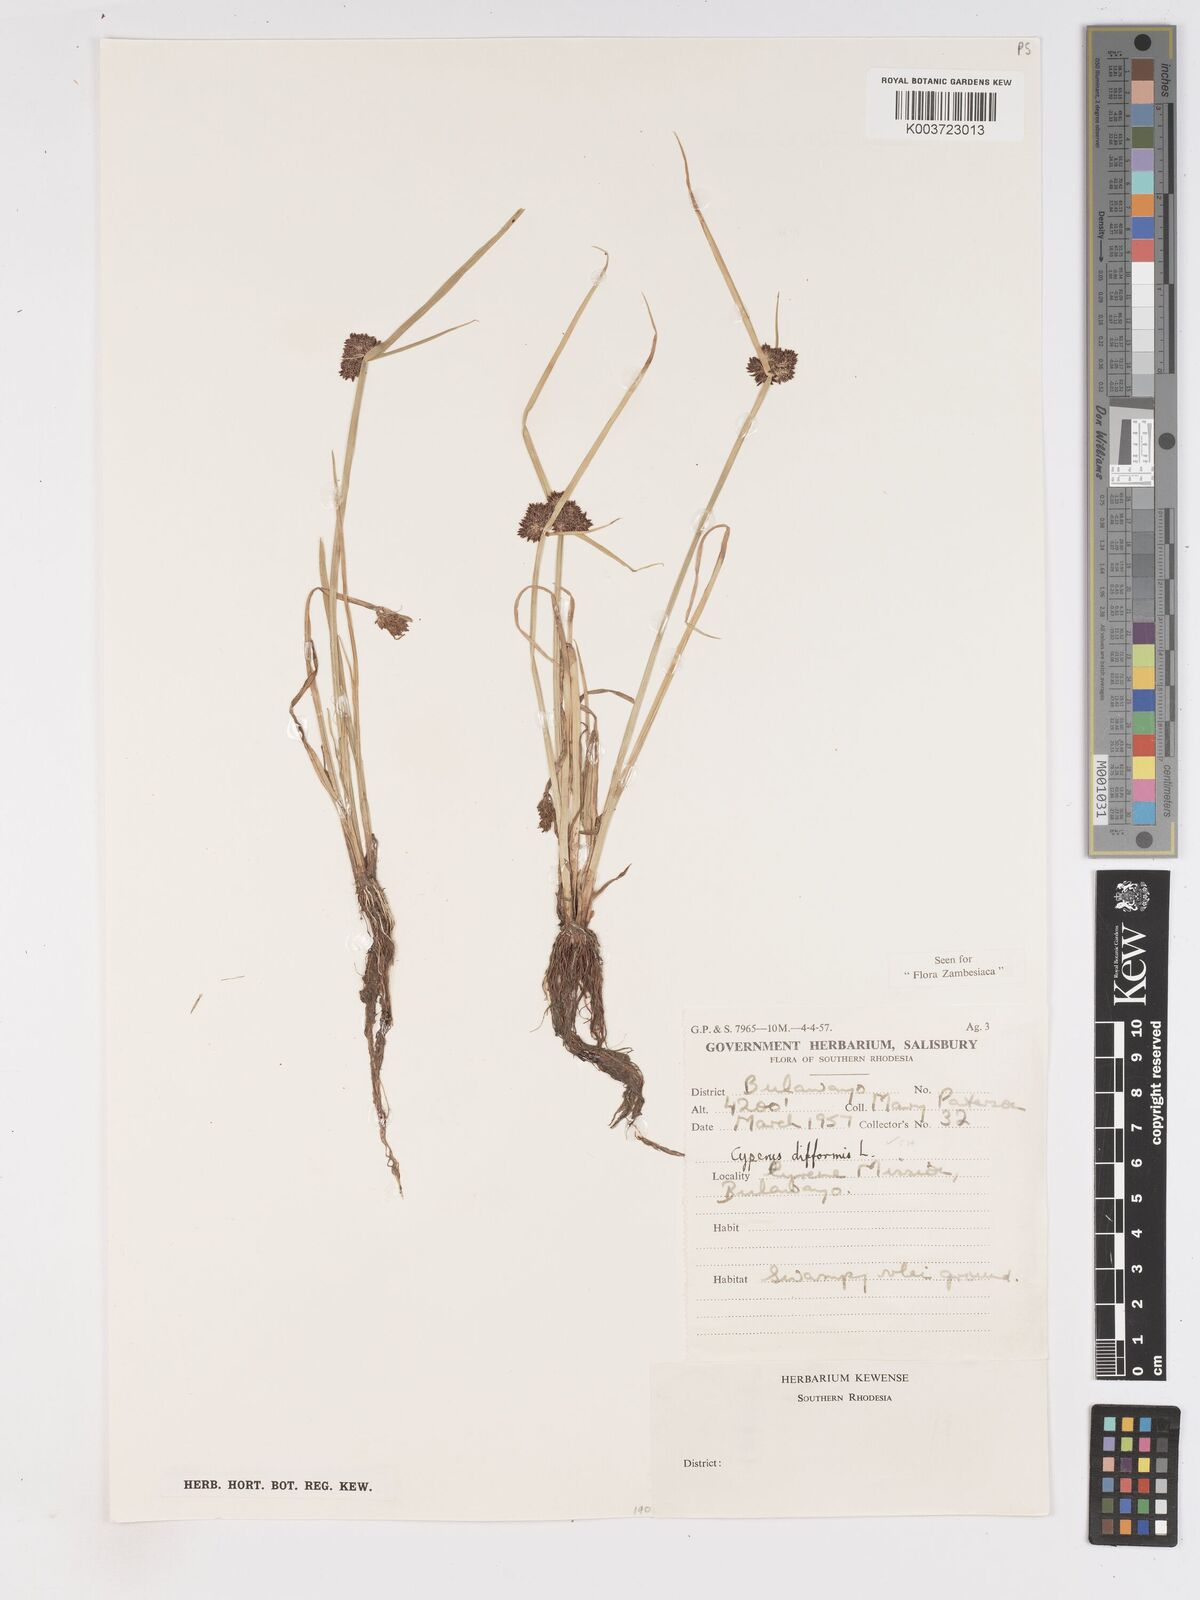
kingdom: Plantae
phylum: Tracheophyta
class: Liliopsida
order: Poales
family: Cyperaceae
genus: Cyperus
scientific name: Cyperus difformis
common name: Variable flatsedge
